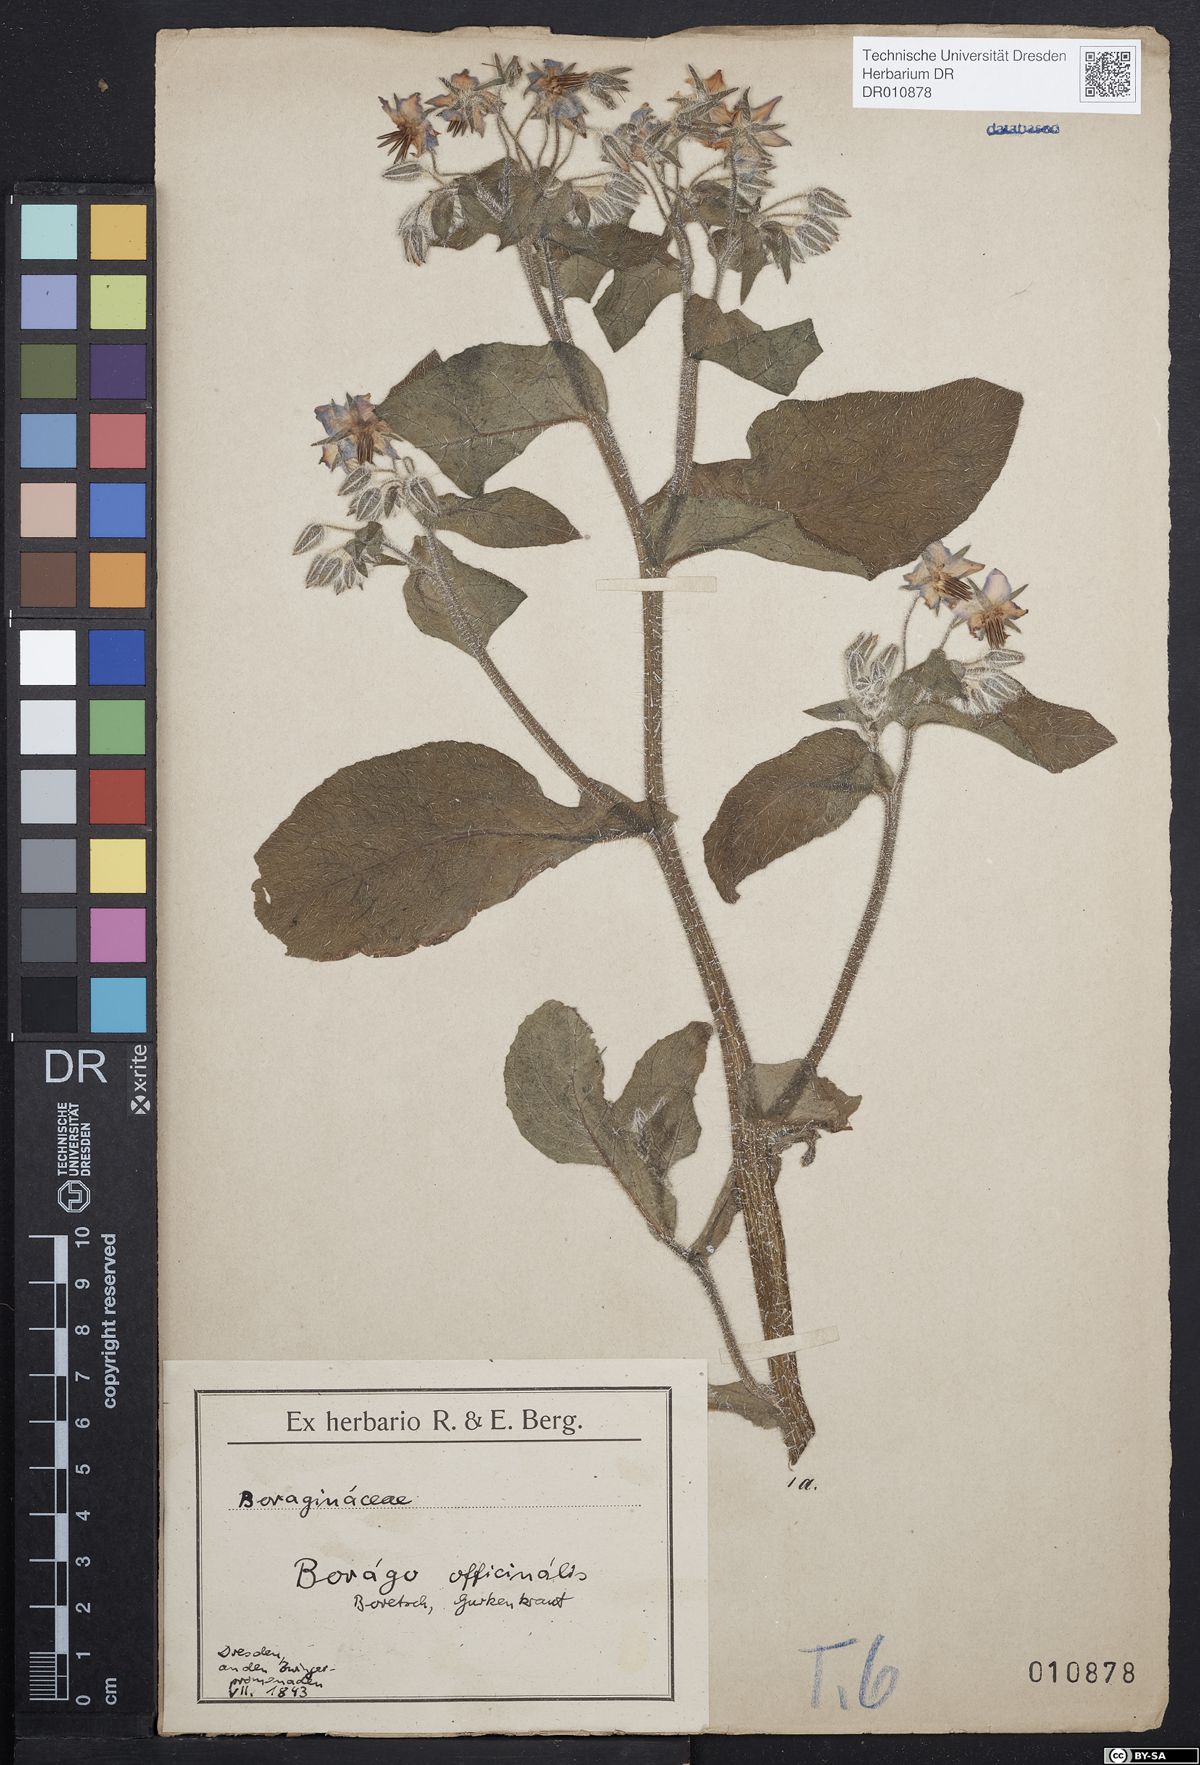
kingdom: Plantae
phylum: Tracheophyta
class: Magnoliopsida
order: Boraginales
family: Boraginaceae
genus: Borago
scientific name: Borago officinalis
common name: Borage
